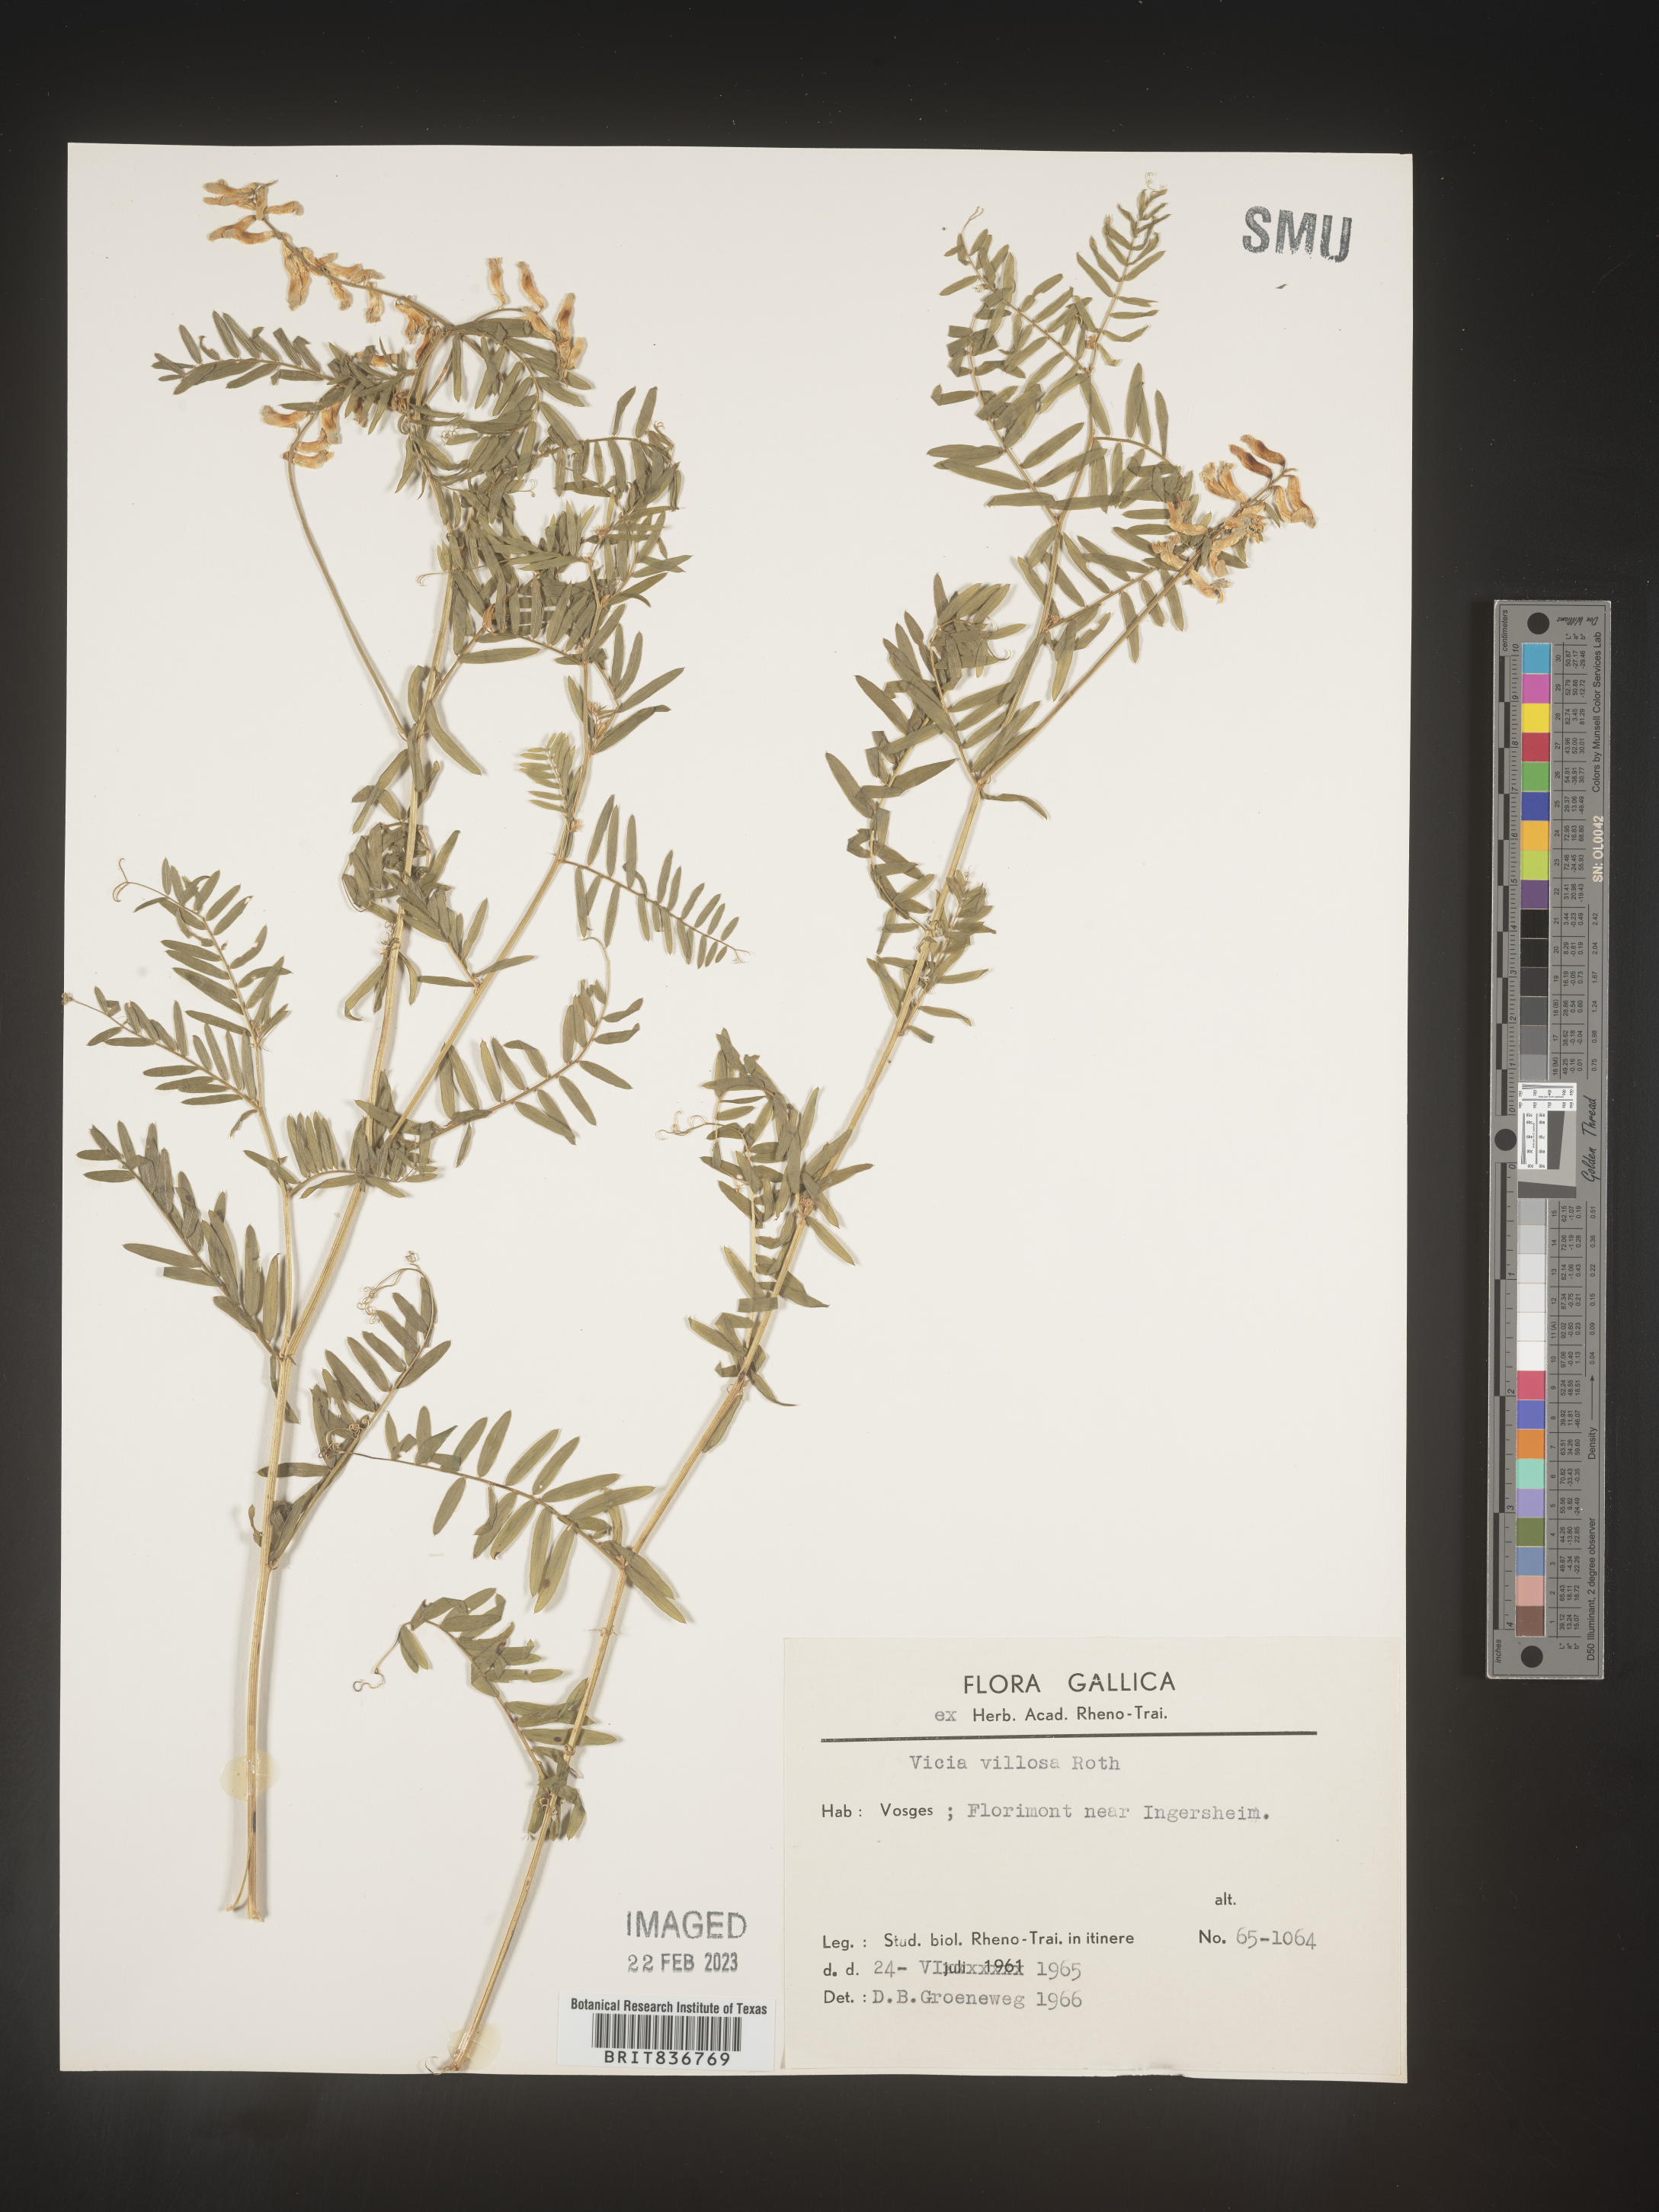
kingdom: Plantae
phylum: Tracheophyta
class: Magnoliopsida
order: Fabales
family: Fabaceae
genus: Vicia
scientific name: Vicia
